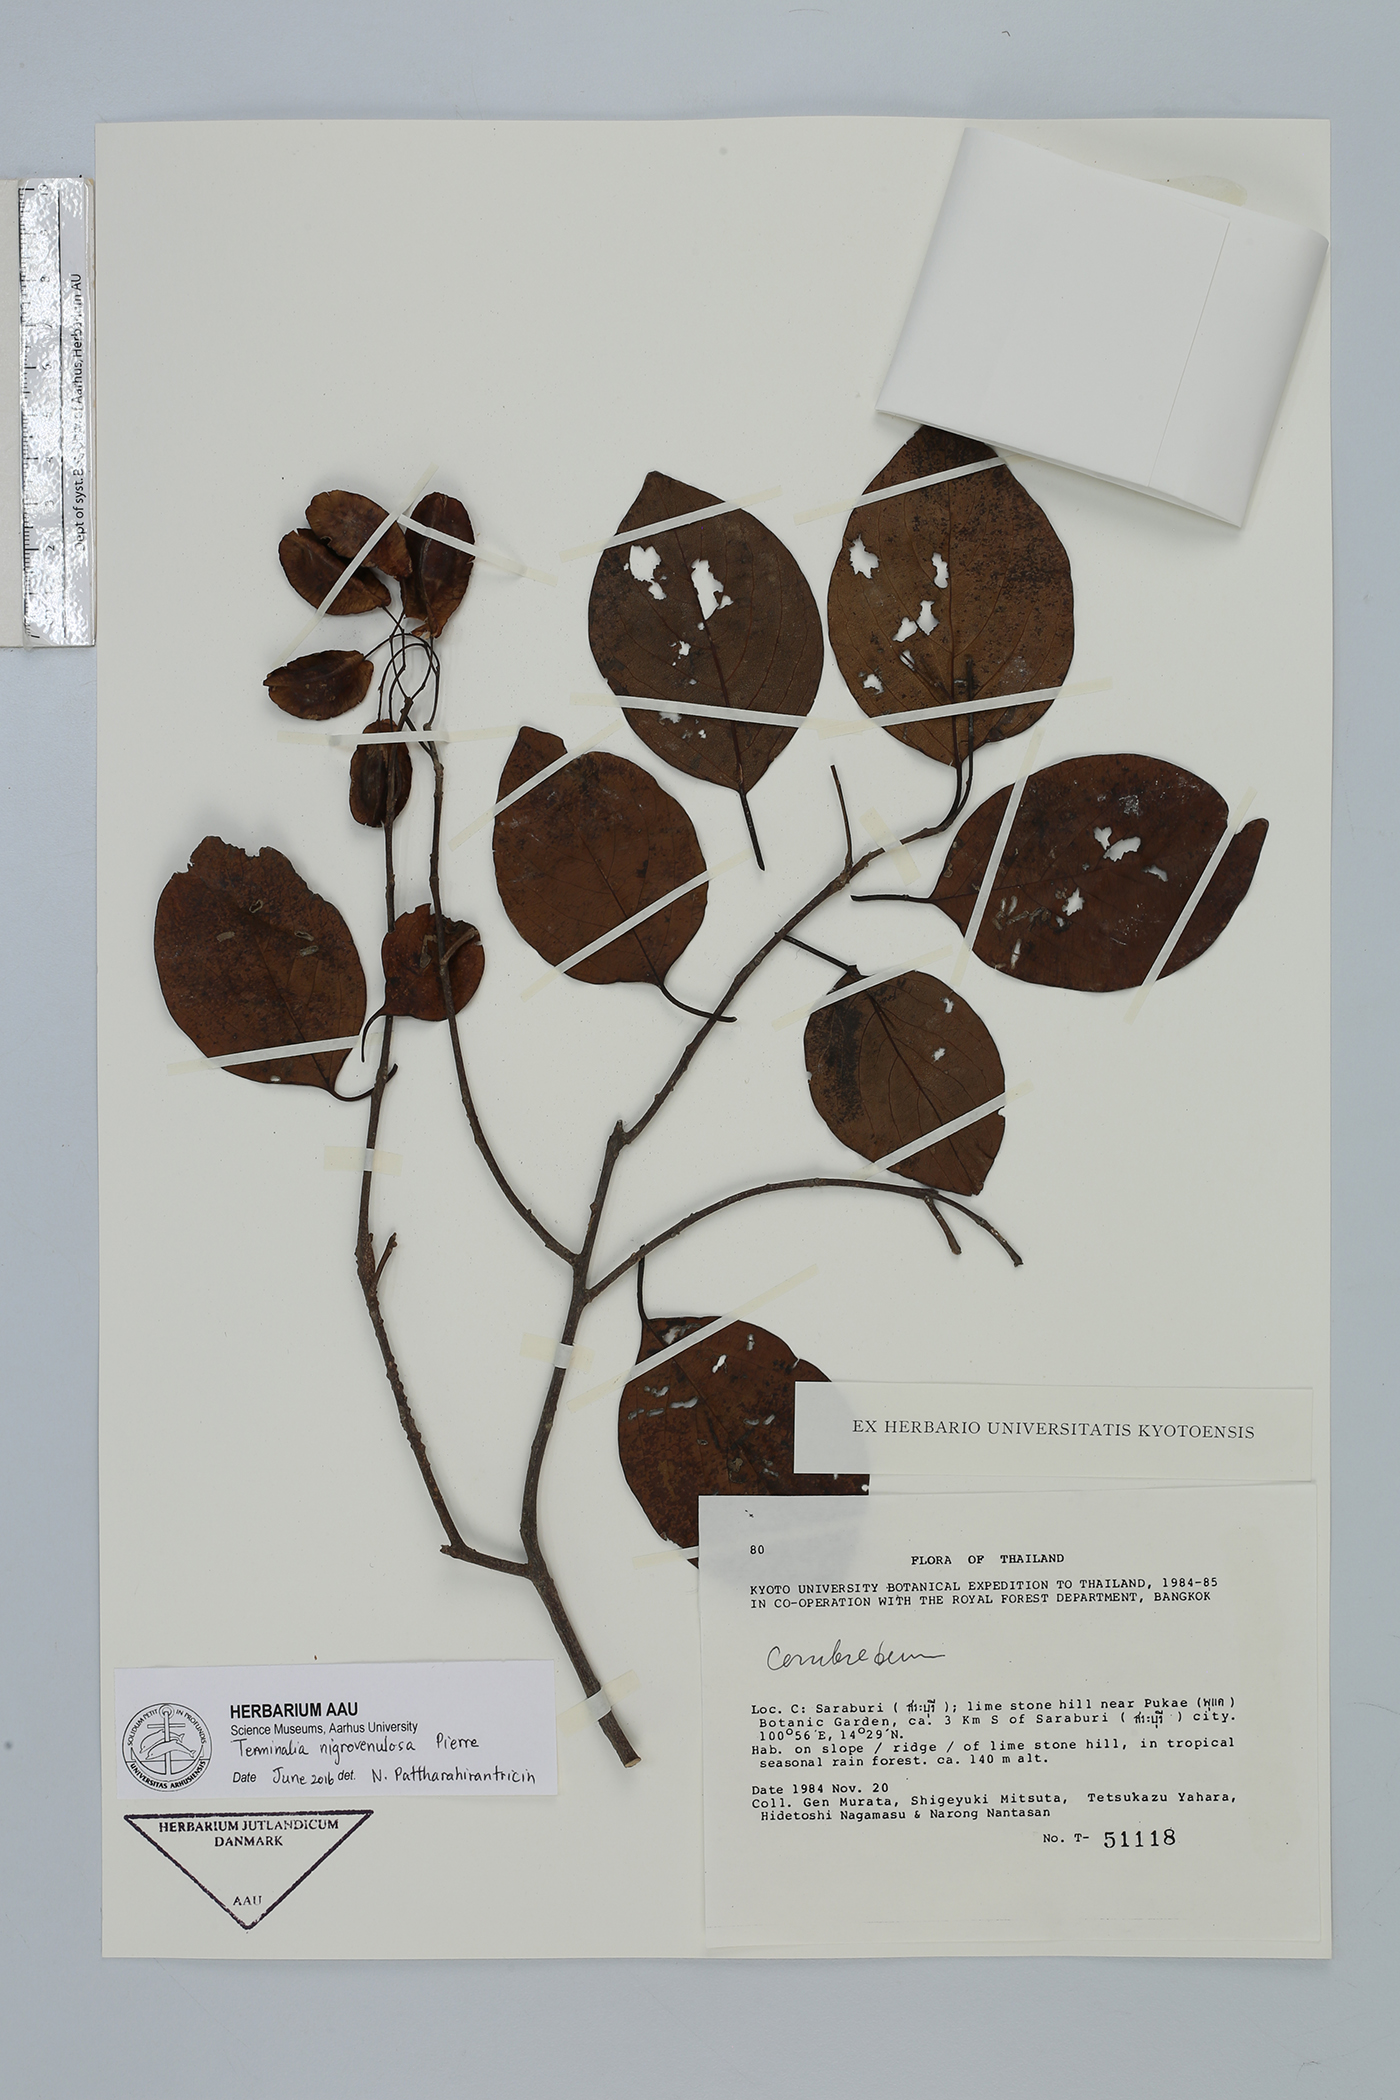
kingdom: Plantae
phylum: Tracheophyta
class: Magnoliopsida
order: Myrtales
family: Combretaceae
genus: Terminalia
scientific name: Terminalia triptera
